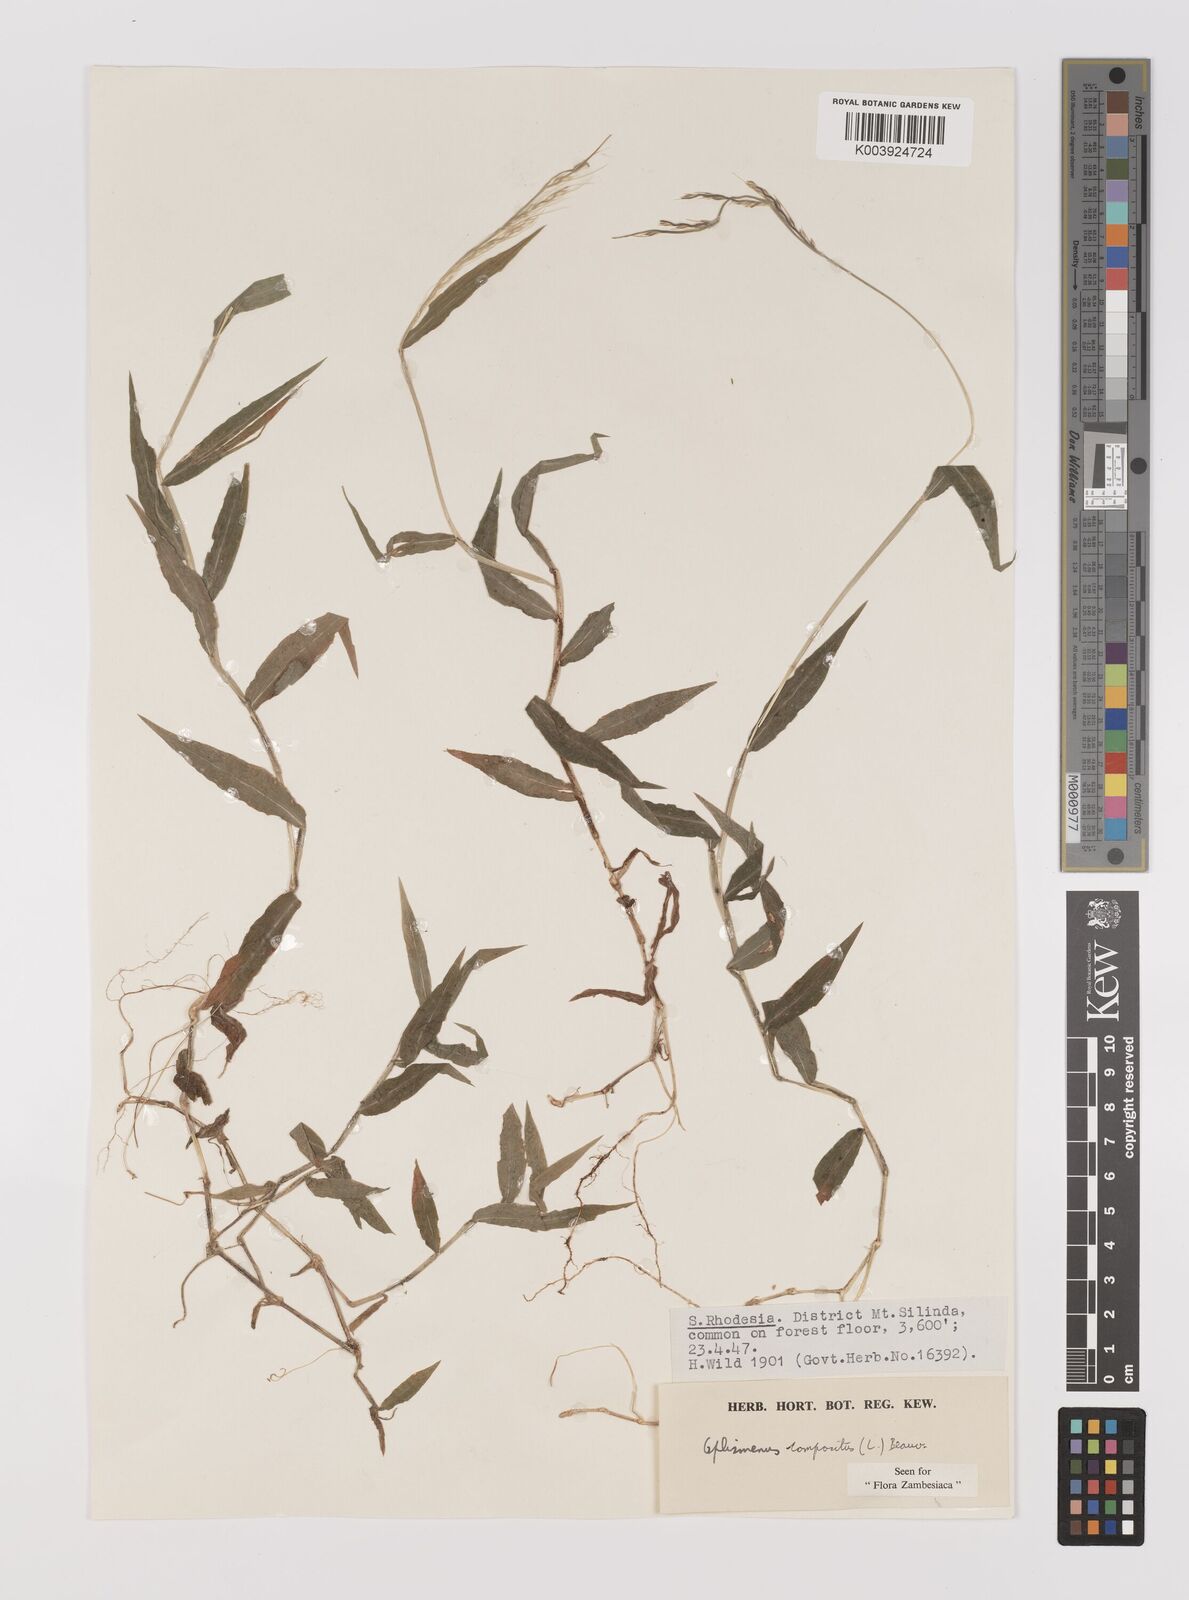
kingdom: Plantae
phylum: Tracheophyta
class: Liliopsida
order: Poales
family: Poaceae
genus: Oplismenus
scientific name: Oplismenus compositus
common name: Running mountain grass
